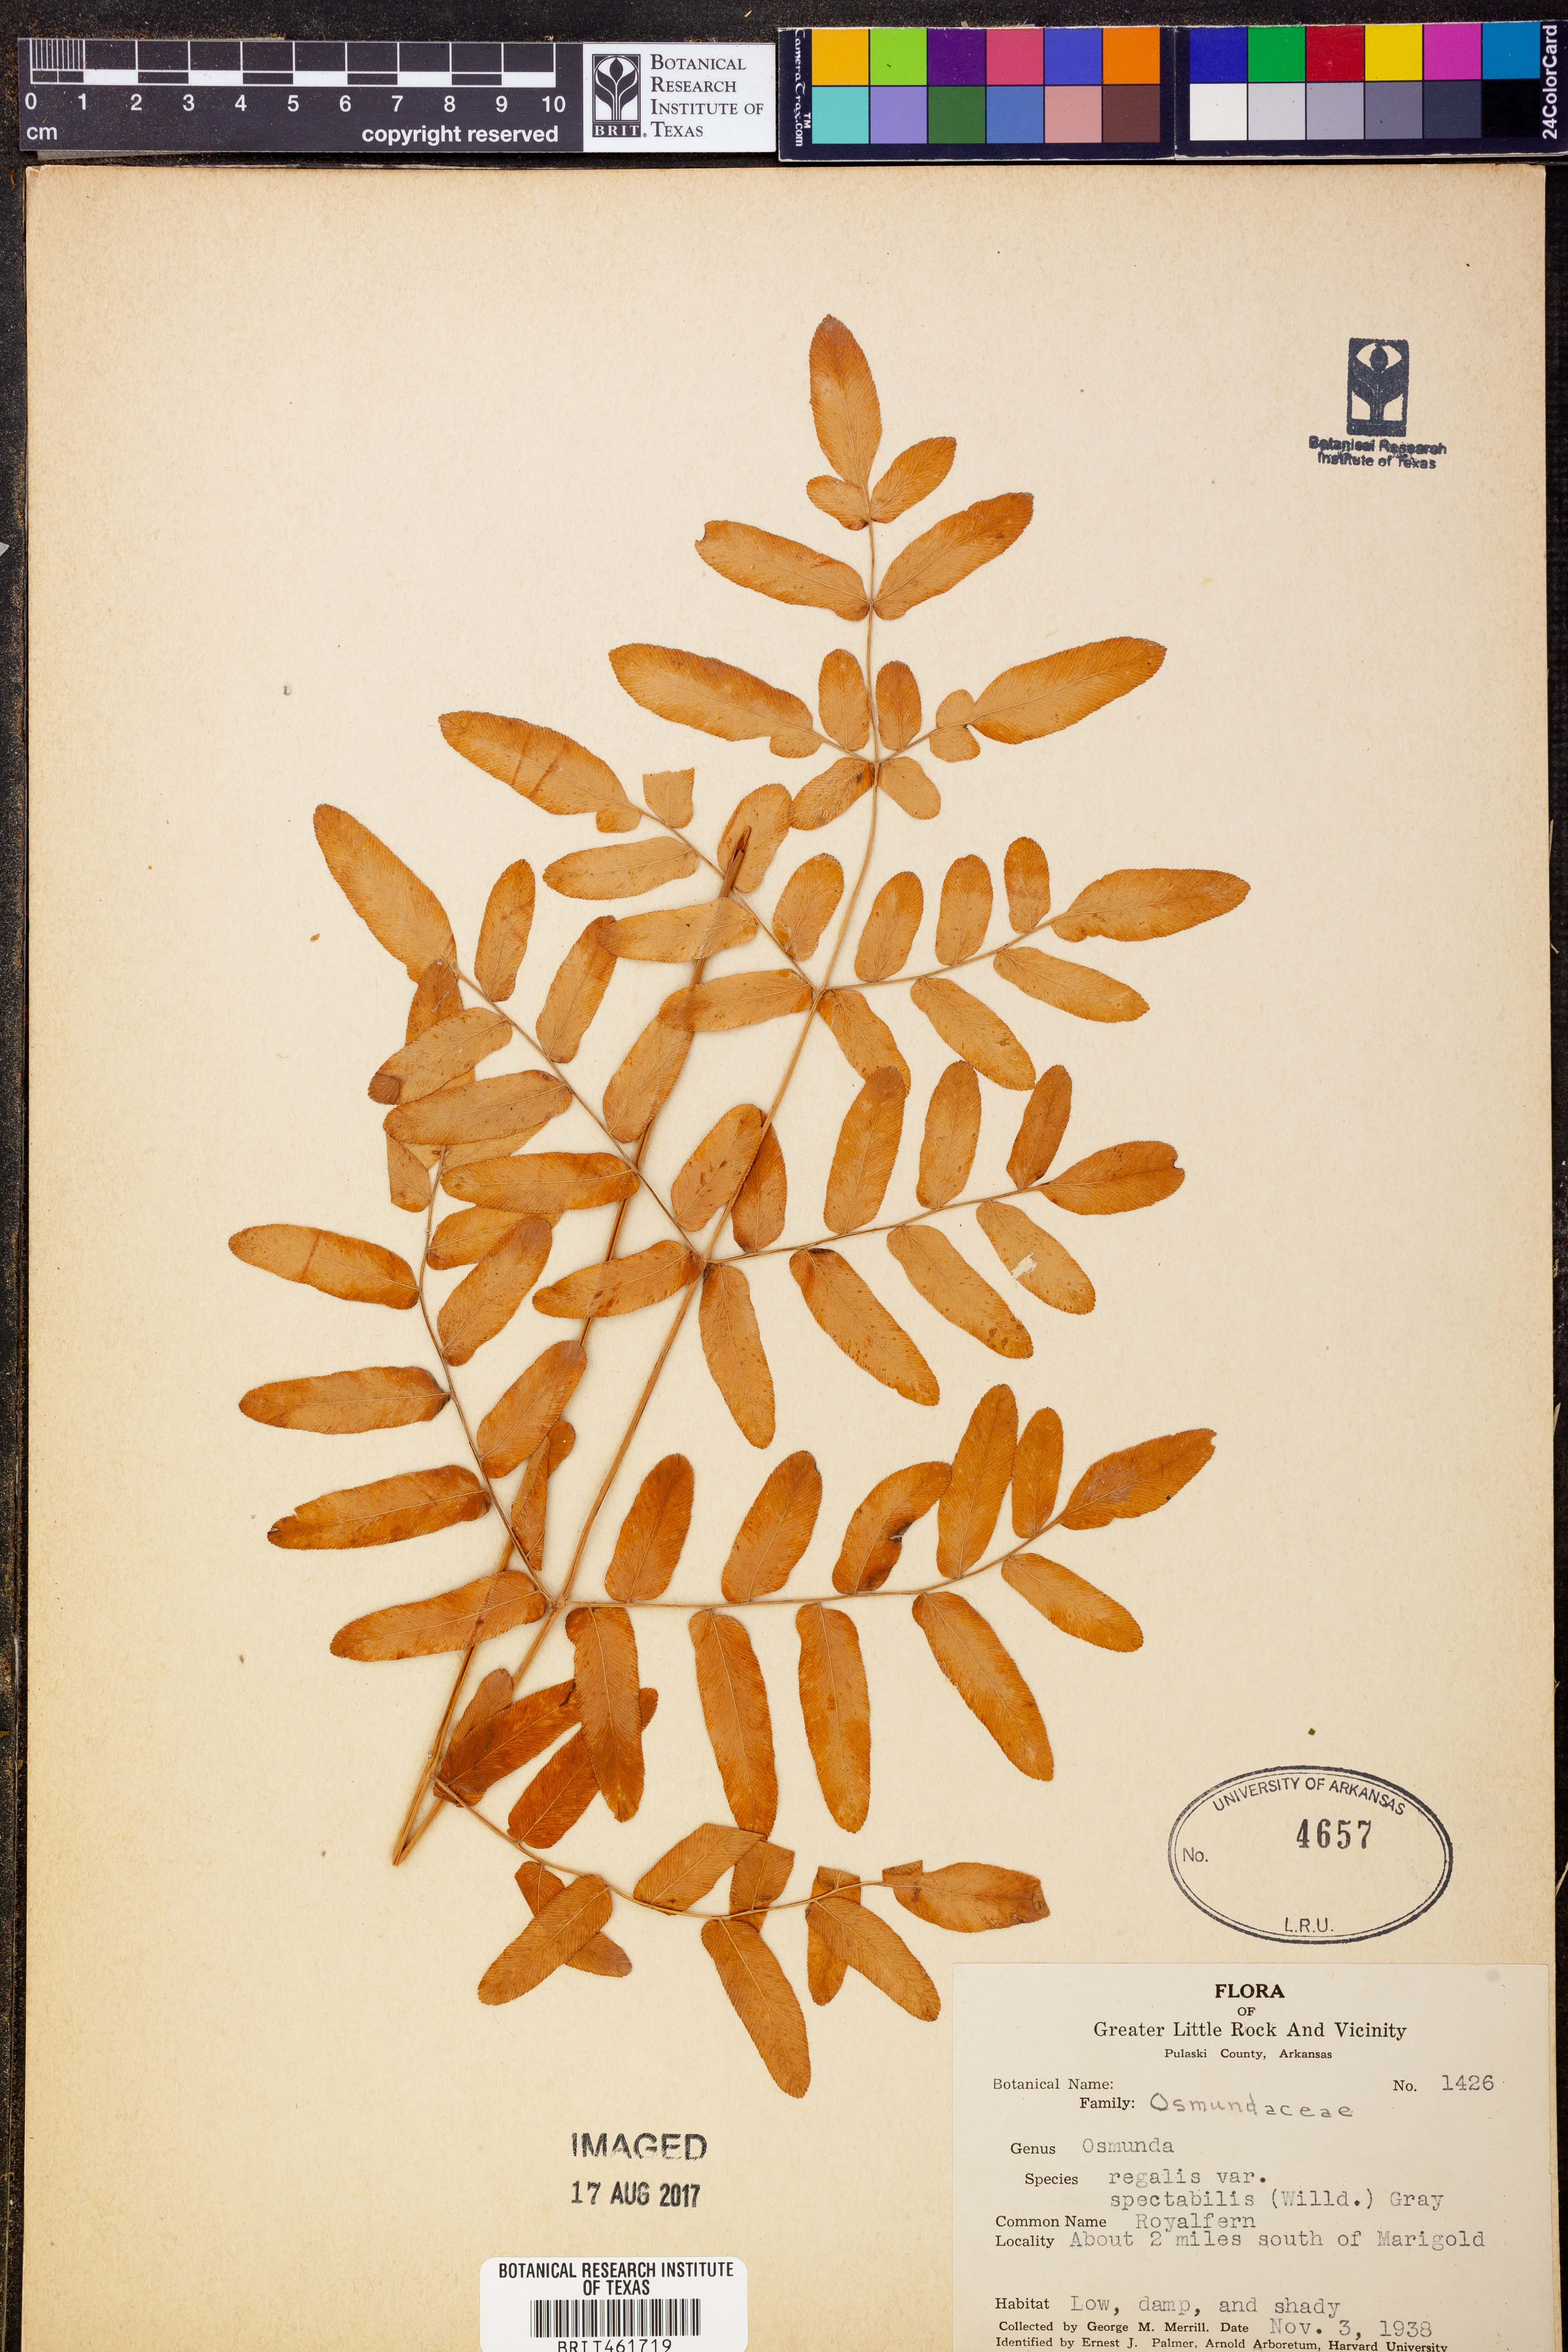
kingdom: Plantae
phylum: Tracheophyta
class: Polypodiopsida
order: Osmundales
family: Osmundaceae
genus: Osmunda
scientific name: Osmunda spectabilis
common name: American royal fern
